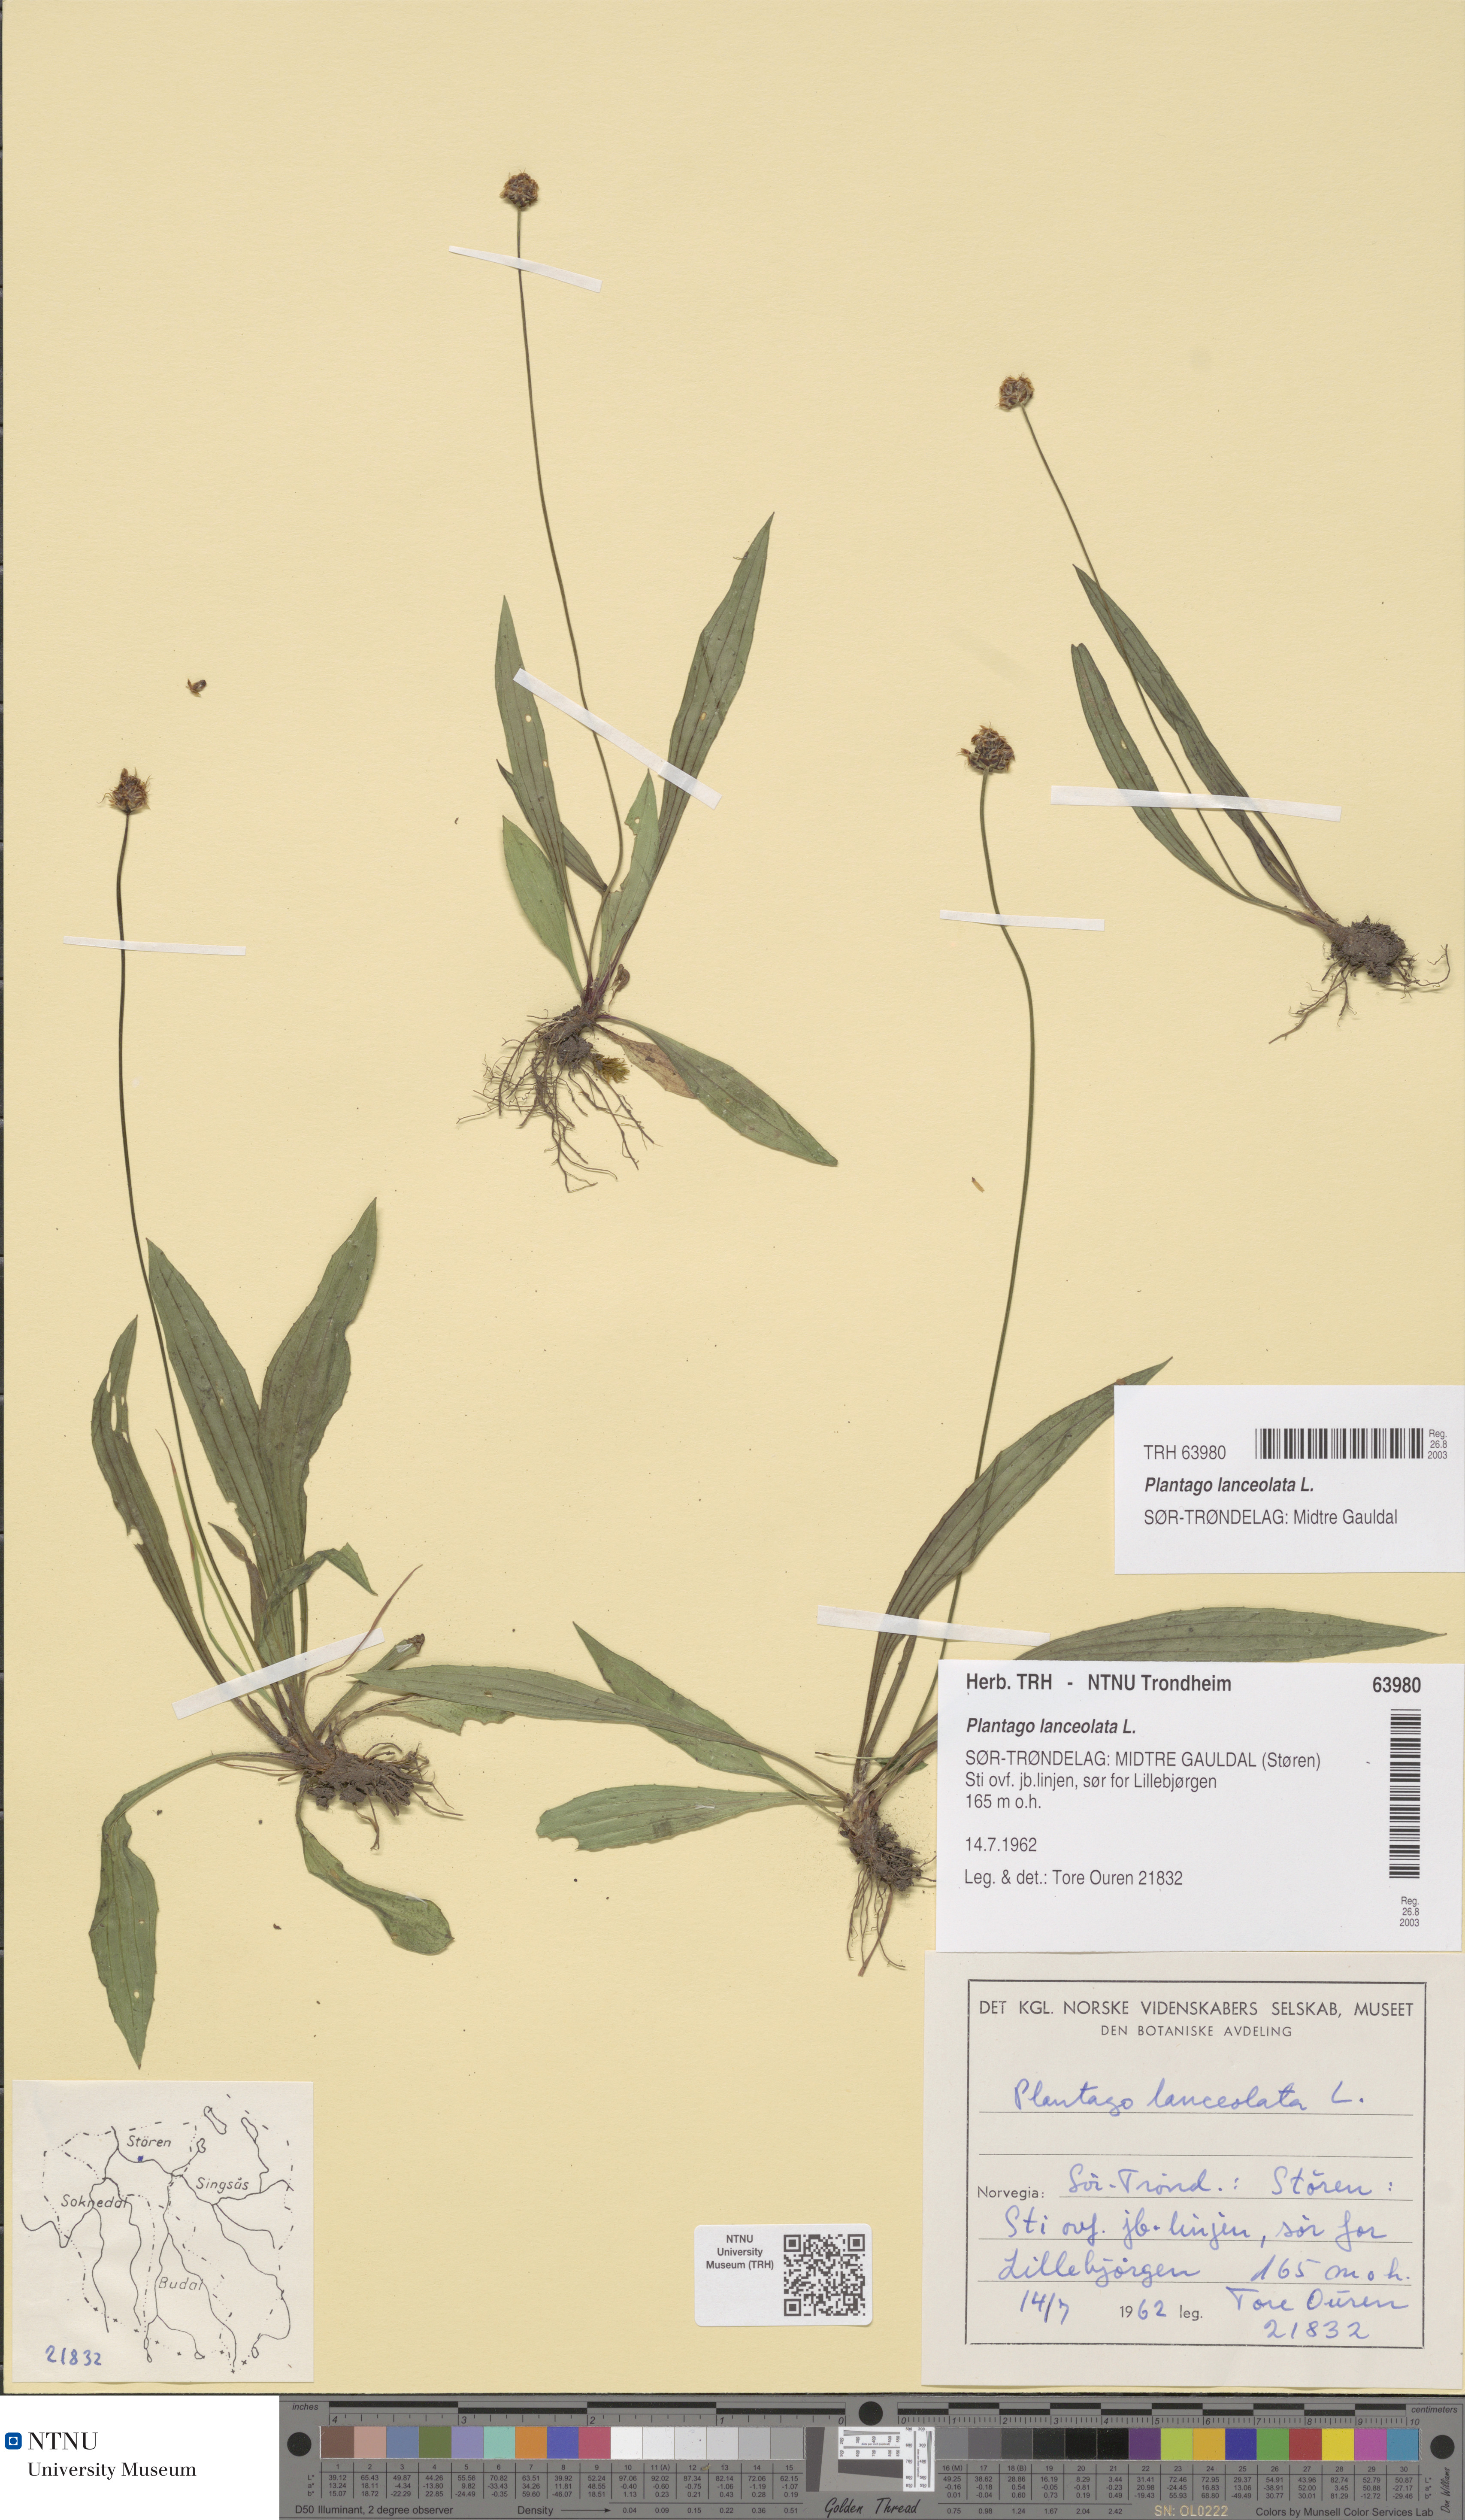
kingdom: Plantae
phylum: Tracheophyta
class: Magnoliopsida
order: Lamiales
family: Plantaginaceae
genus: Plantago
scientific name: Plantago lanceolata
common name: Ribwort plantain
